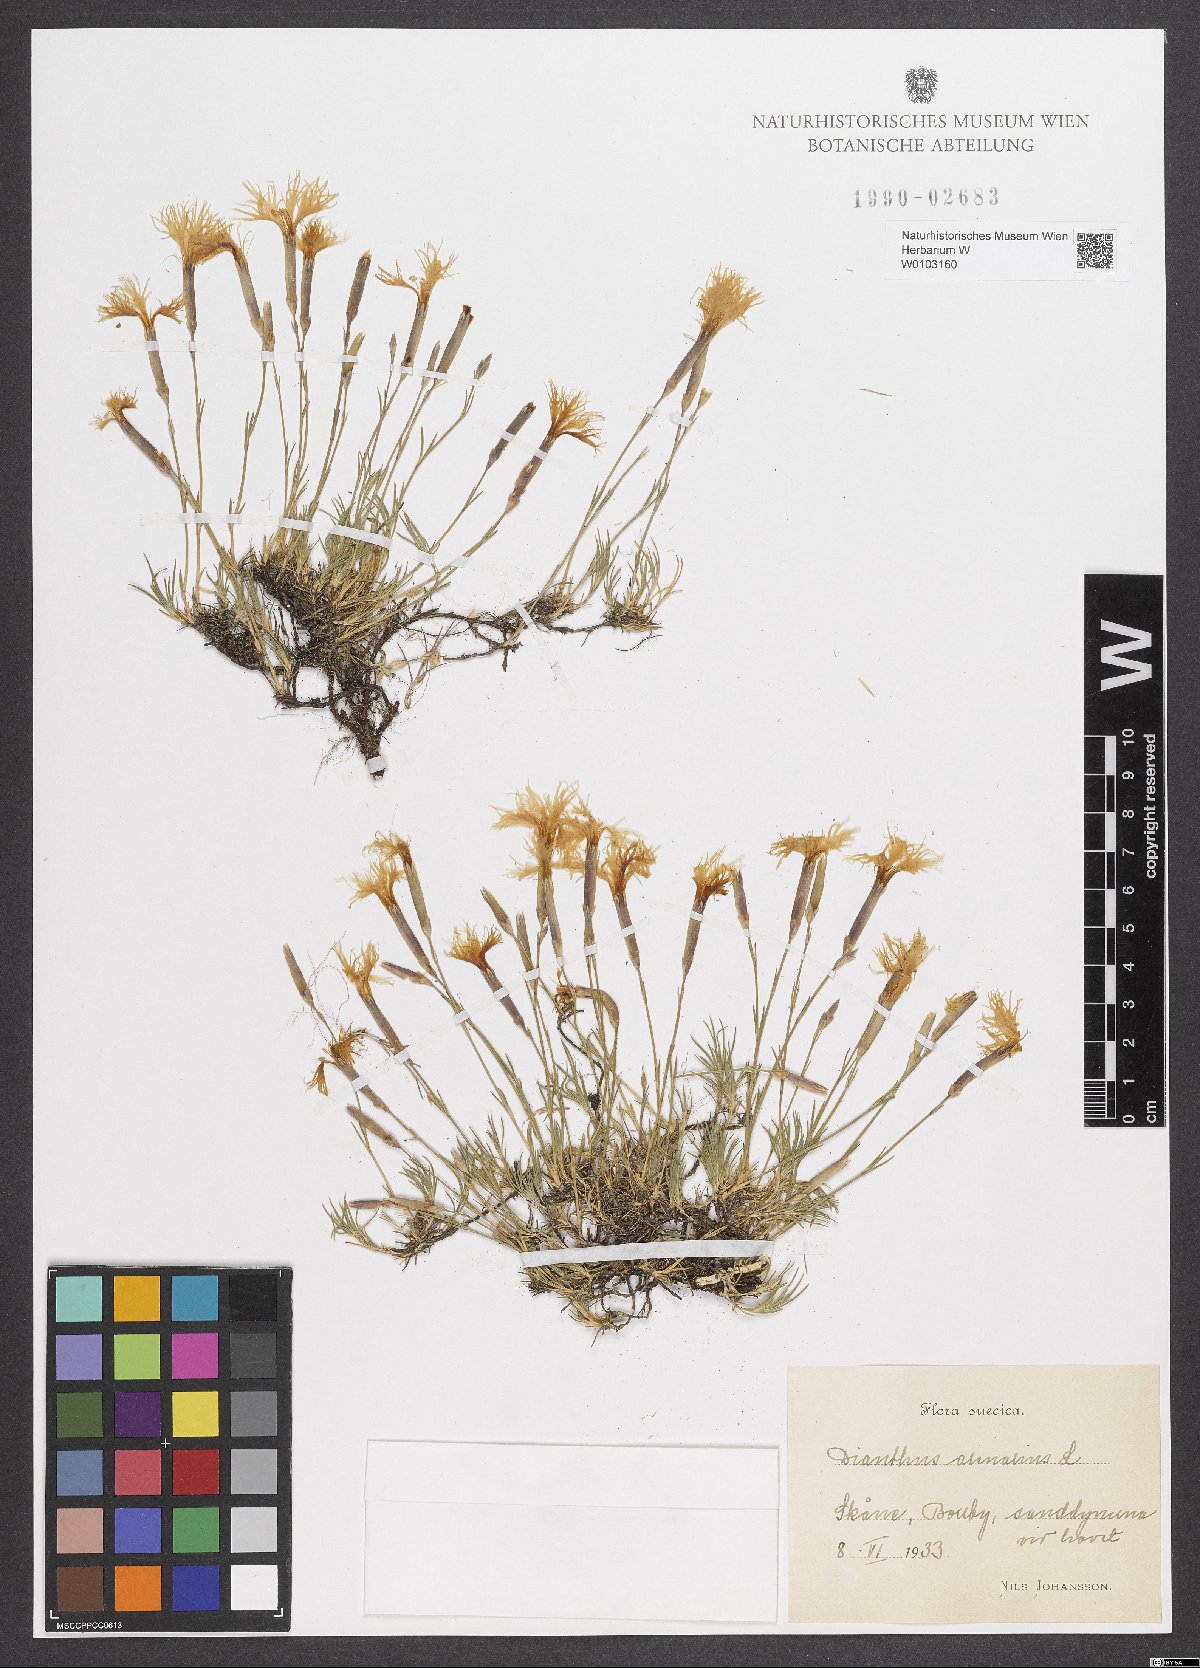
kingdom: Plantae
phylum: Tracheophyta
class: Magnoliopsida
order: Caryophyllales
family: Caryophyllaceae
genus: Dianthus
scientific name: Dianthus arenarius
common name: Stone pink
